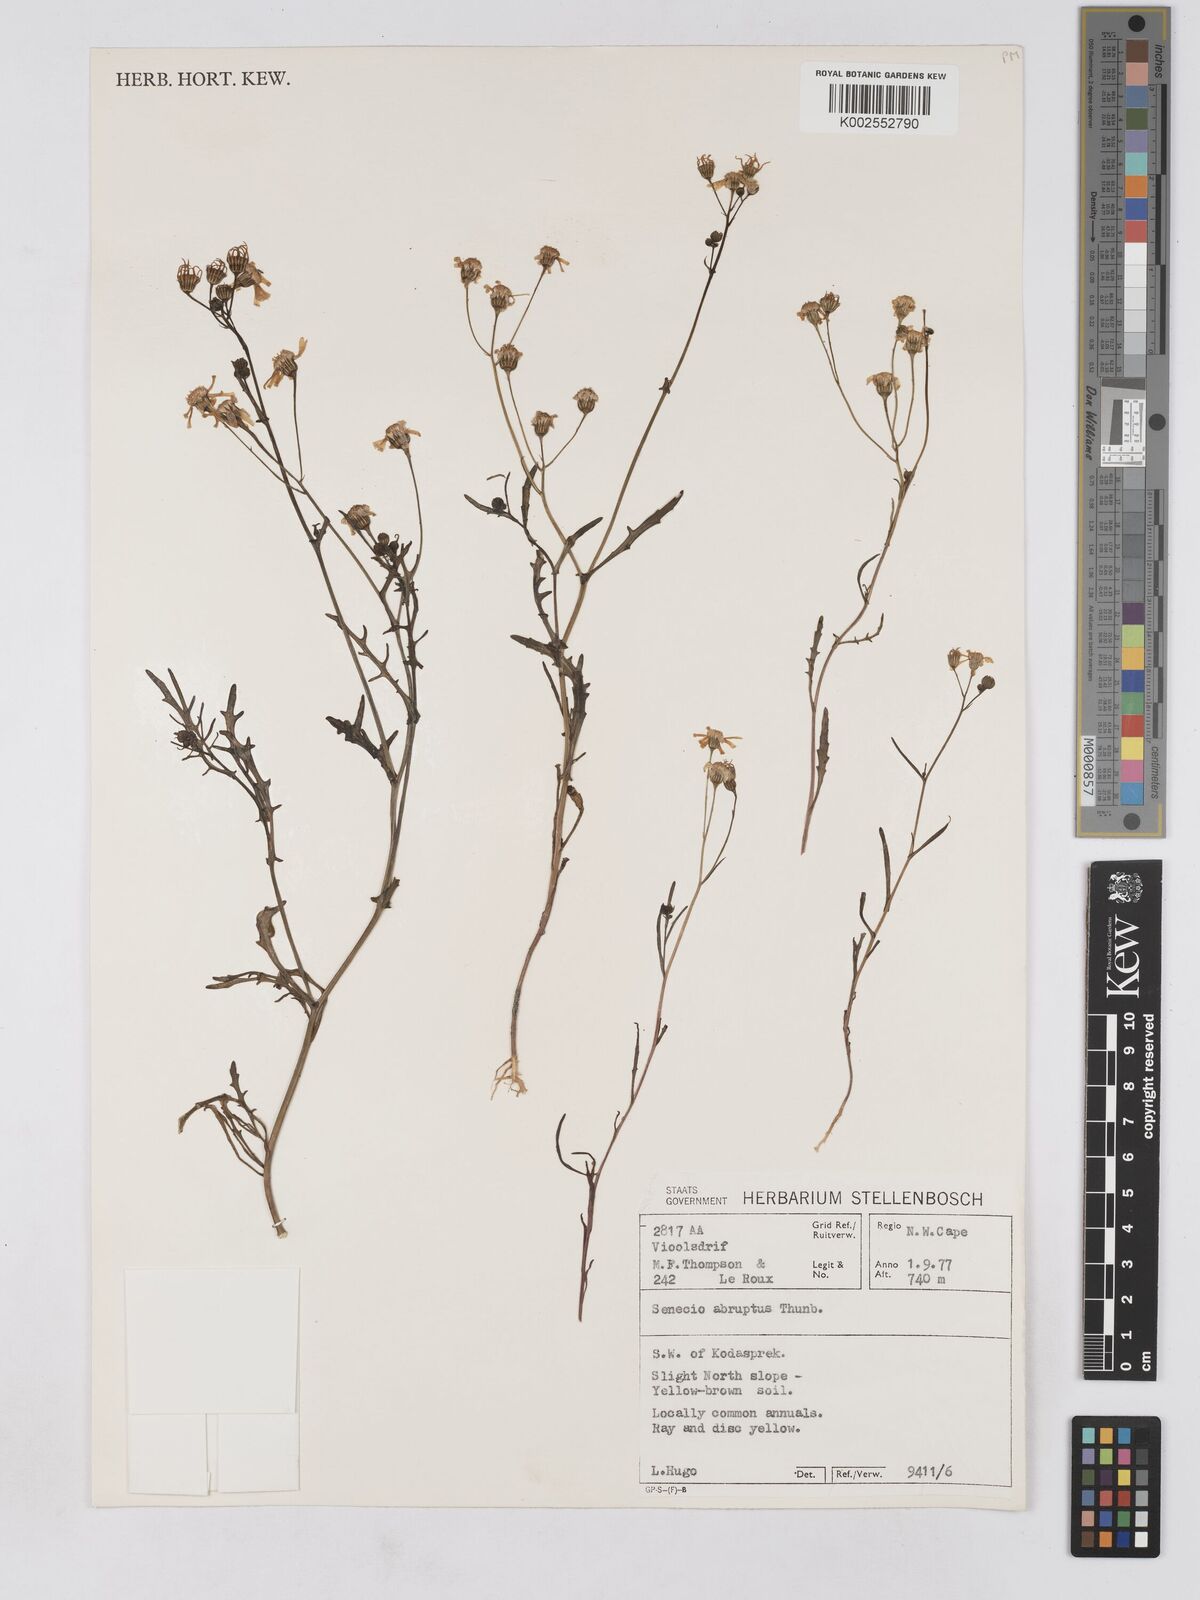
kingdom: Plantae
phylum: Tracheophyta
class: Magnoliopsida
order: Asterales
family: Asteraceae
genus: Senecio
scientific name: Senecio abruptus
